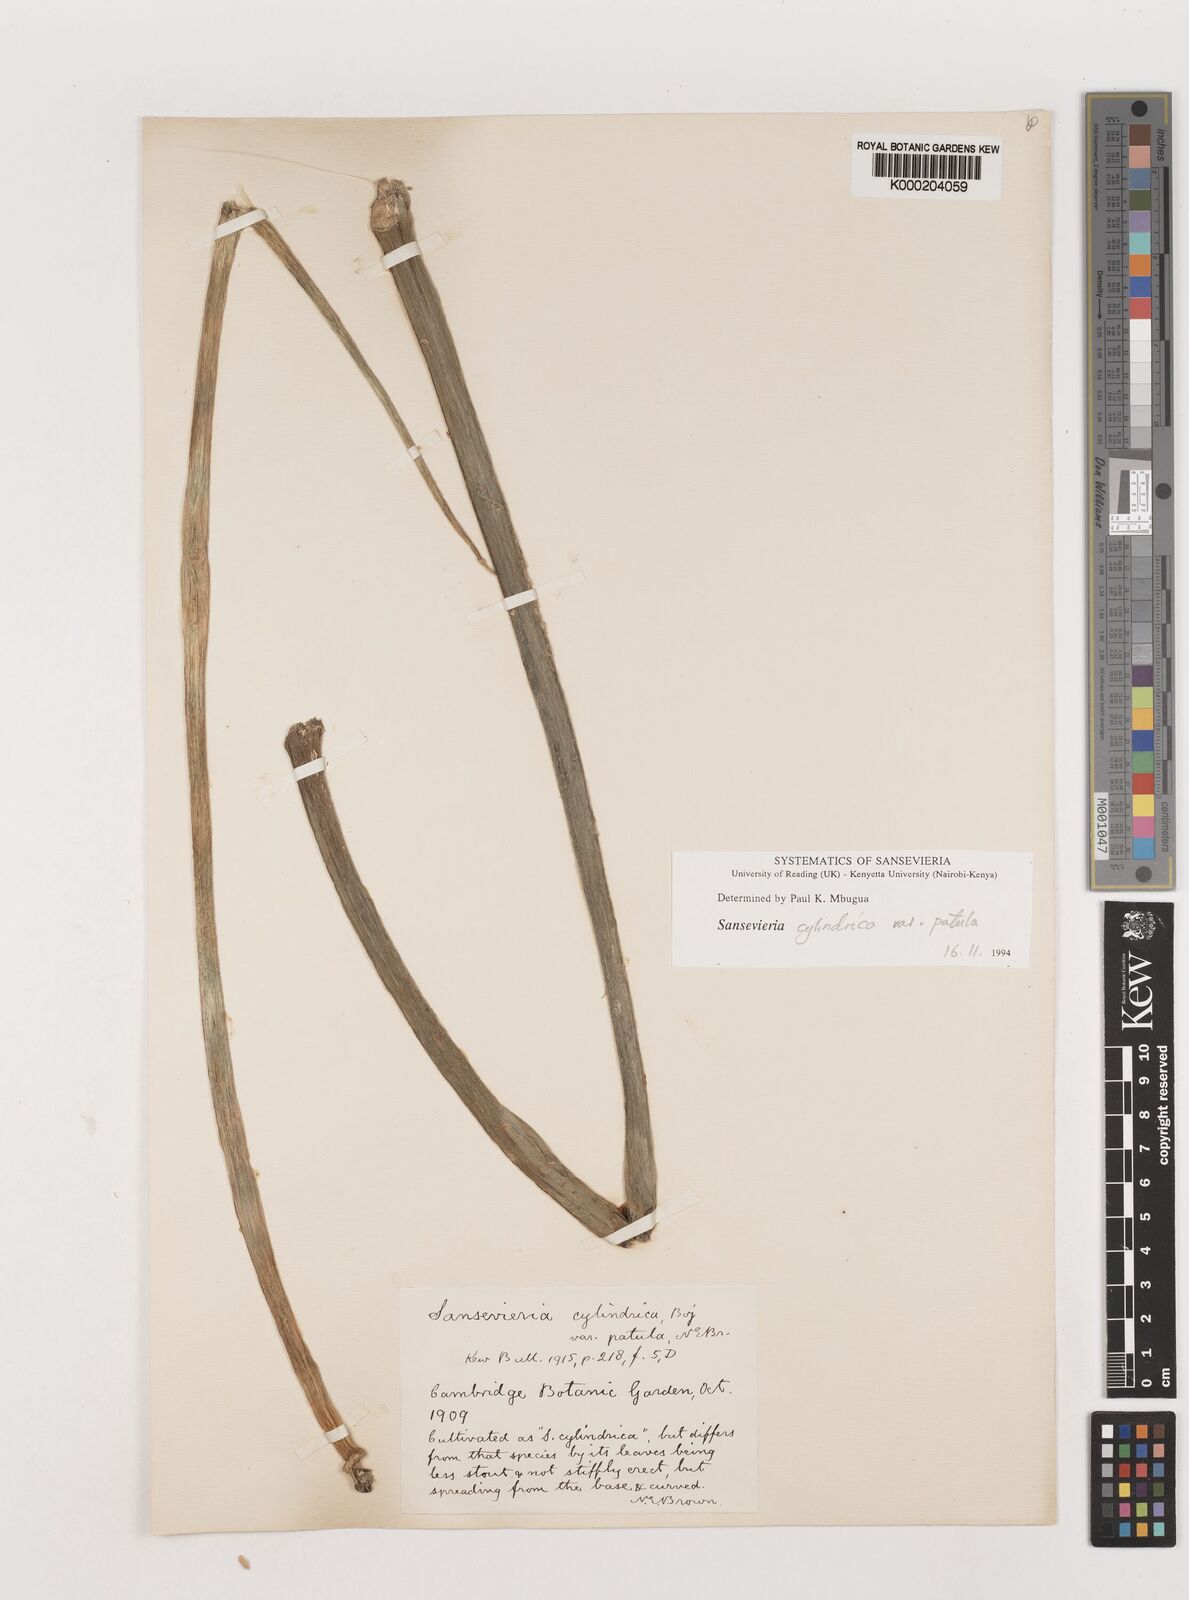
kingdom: Plantae
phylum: Tracheophyta
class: Liliopsida
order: Asparagales
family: Asparagaceae
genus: Dracaena
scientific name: Dracaena angolensis
